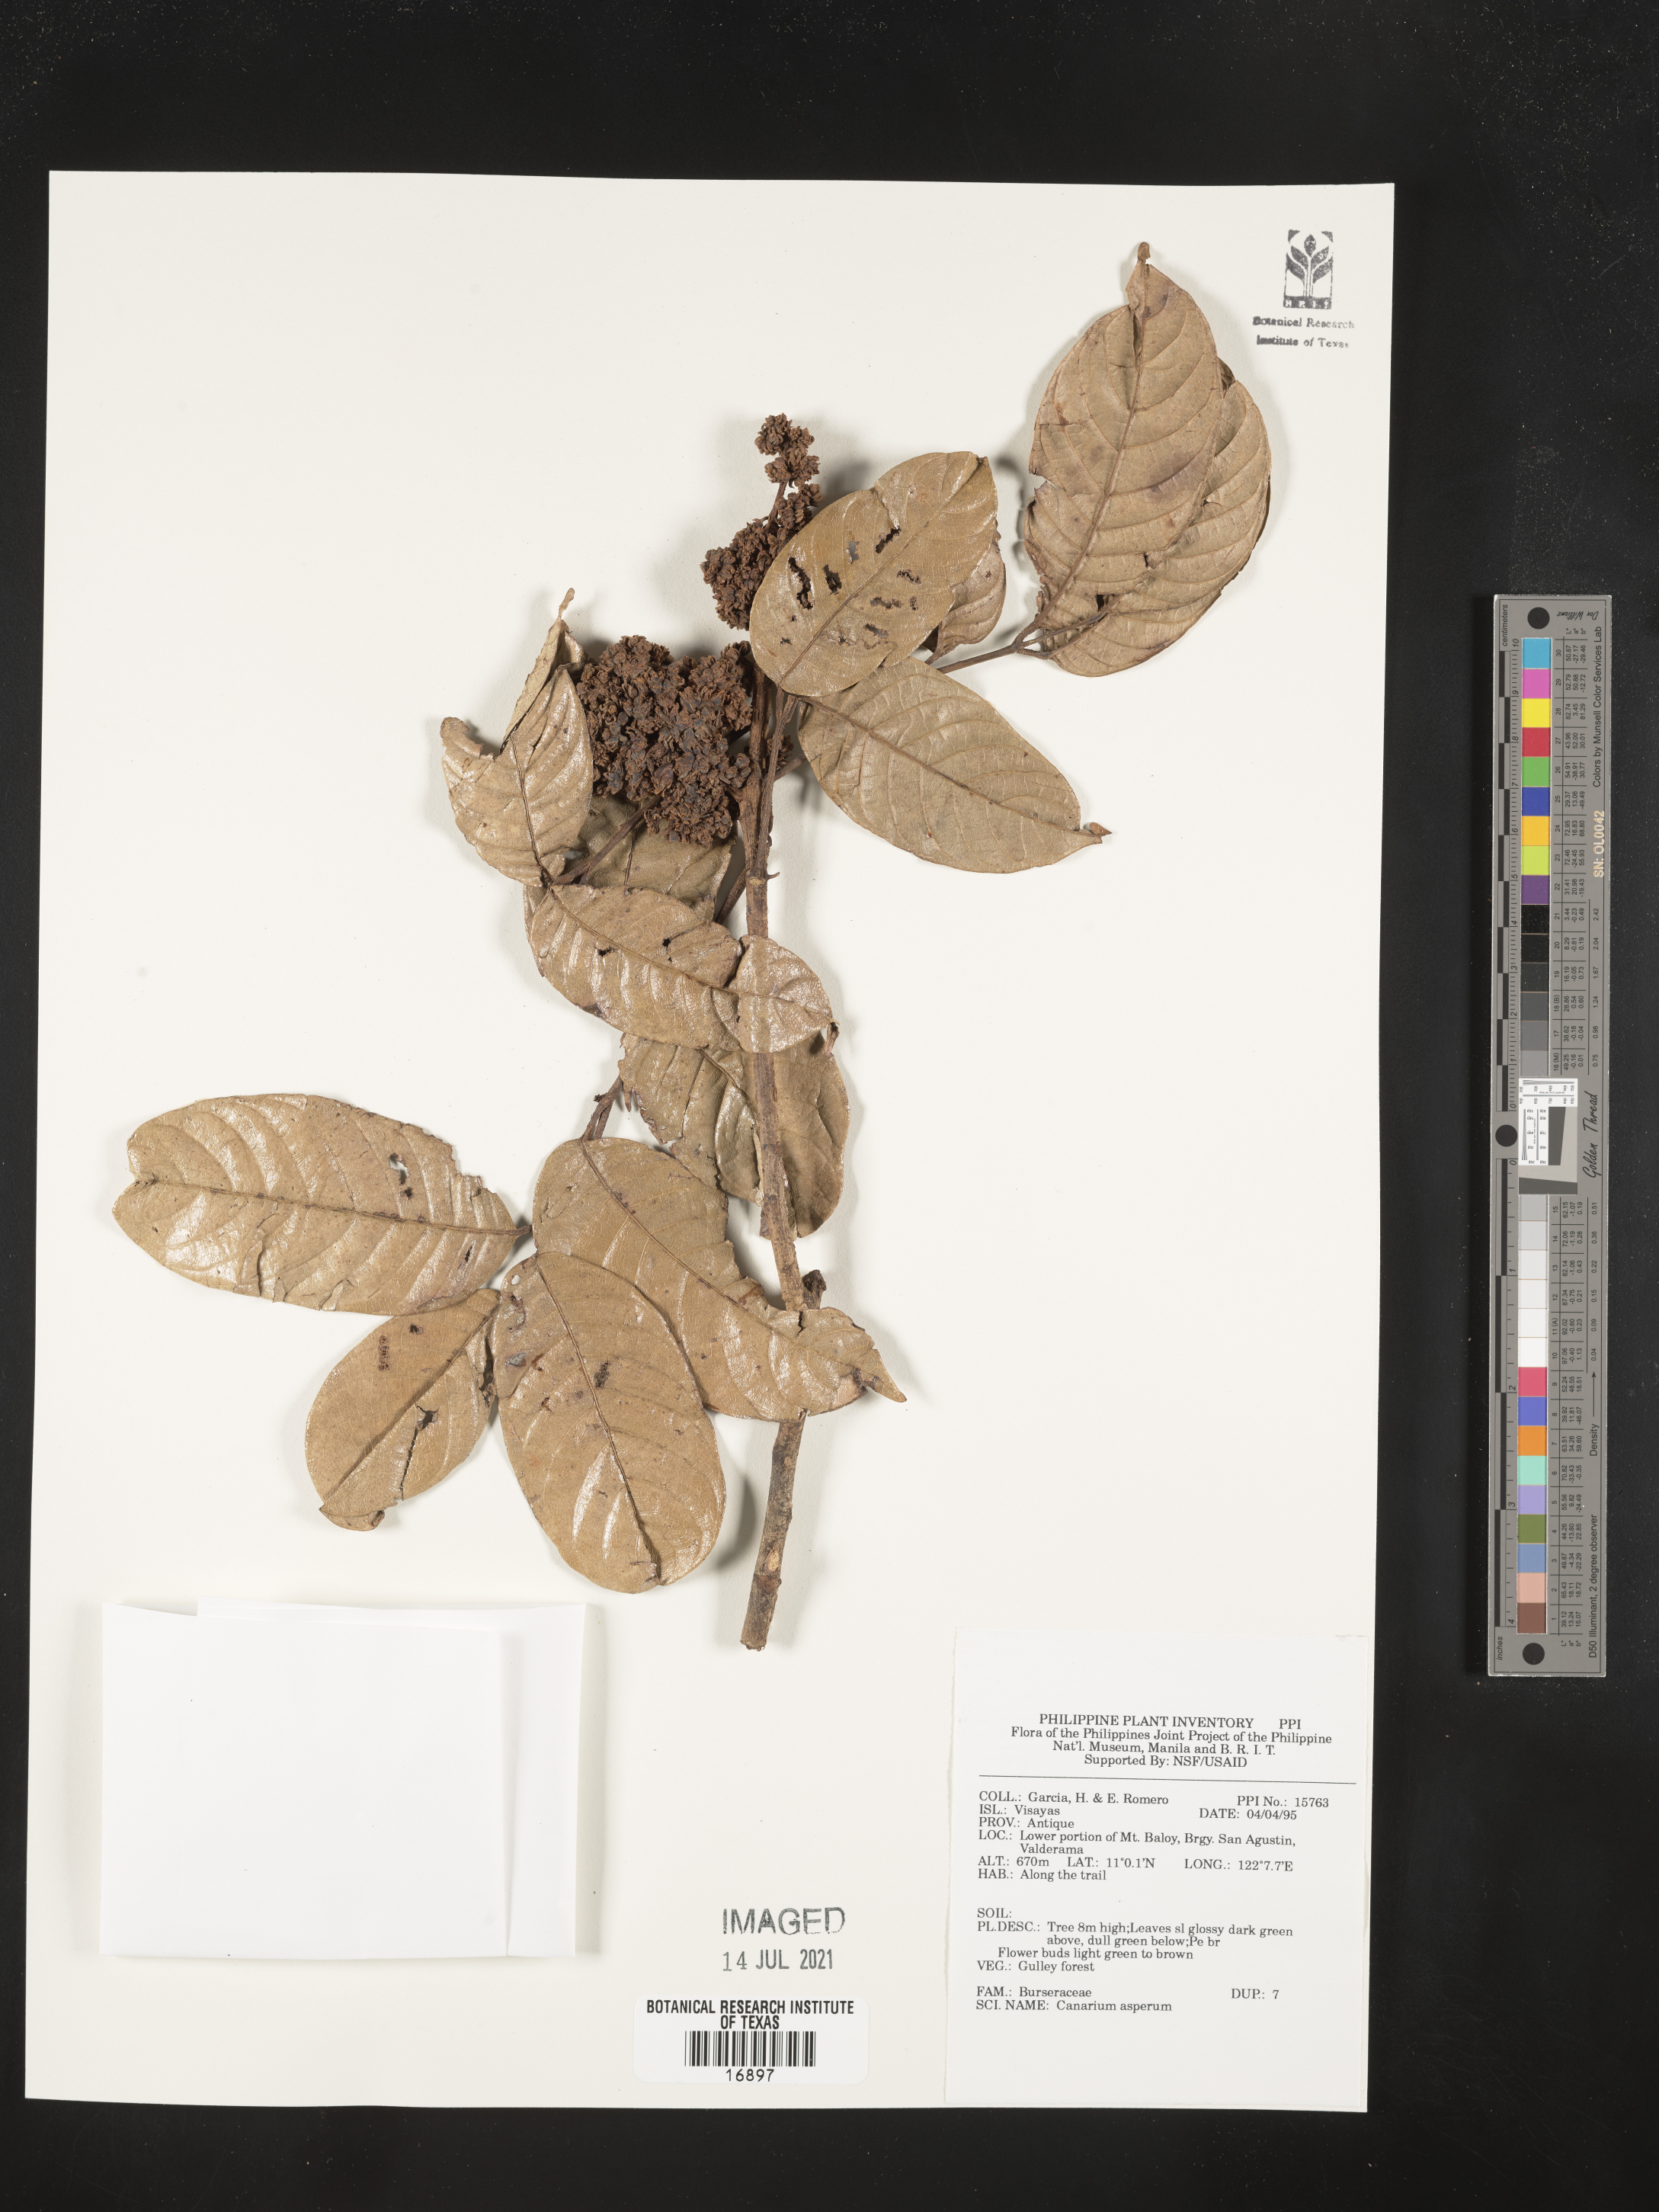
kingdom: Plantae
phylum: Tracheophyta
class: Magnoliopsida
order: Sapindales
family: Burseraceae
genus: Canarium
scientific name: Canarium asperum
